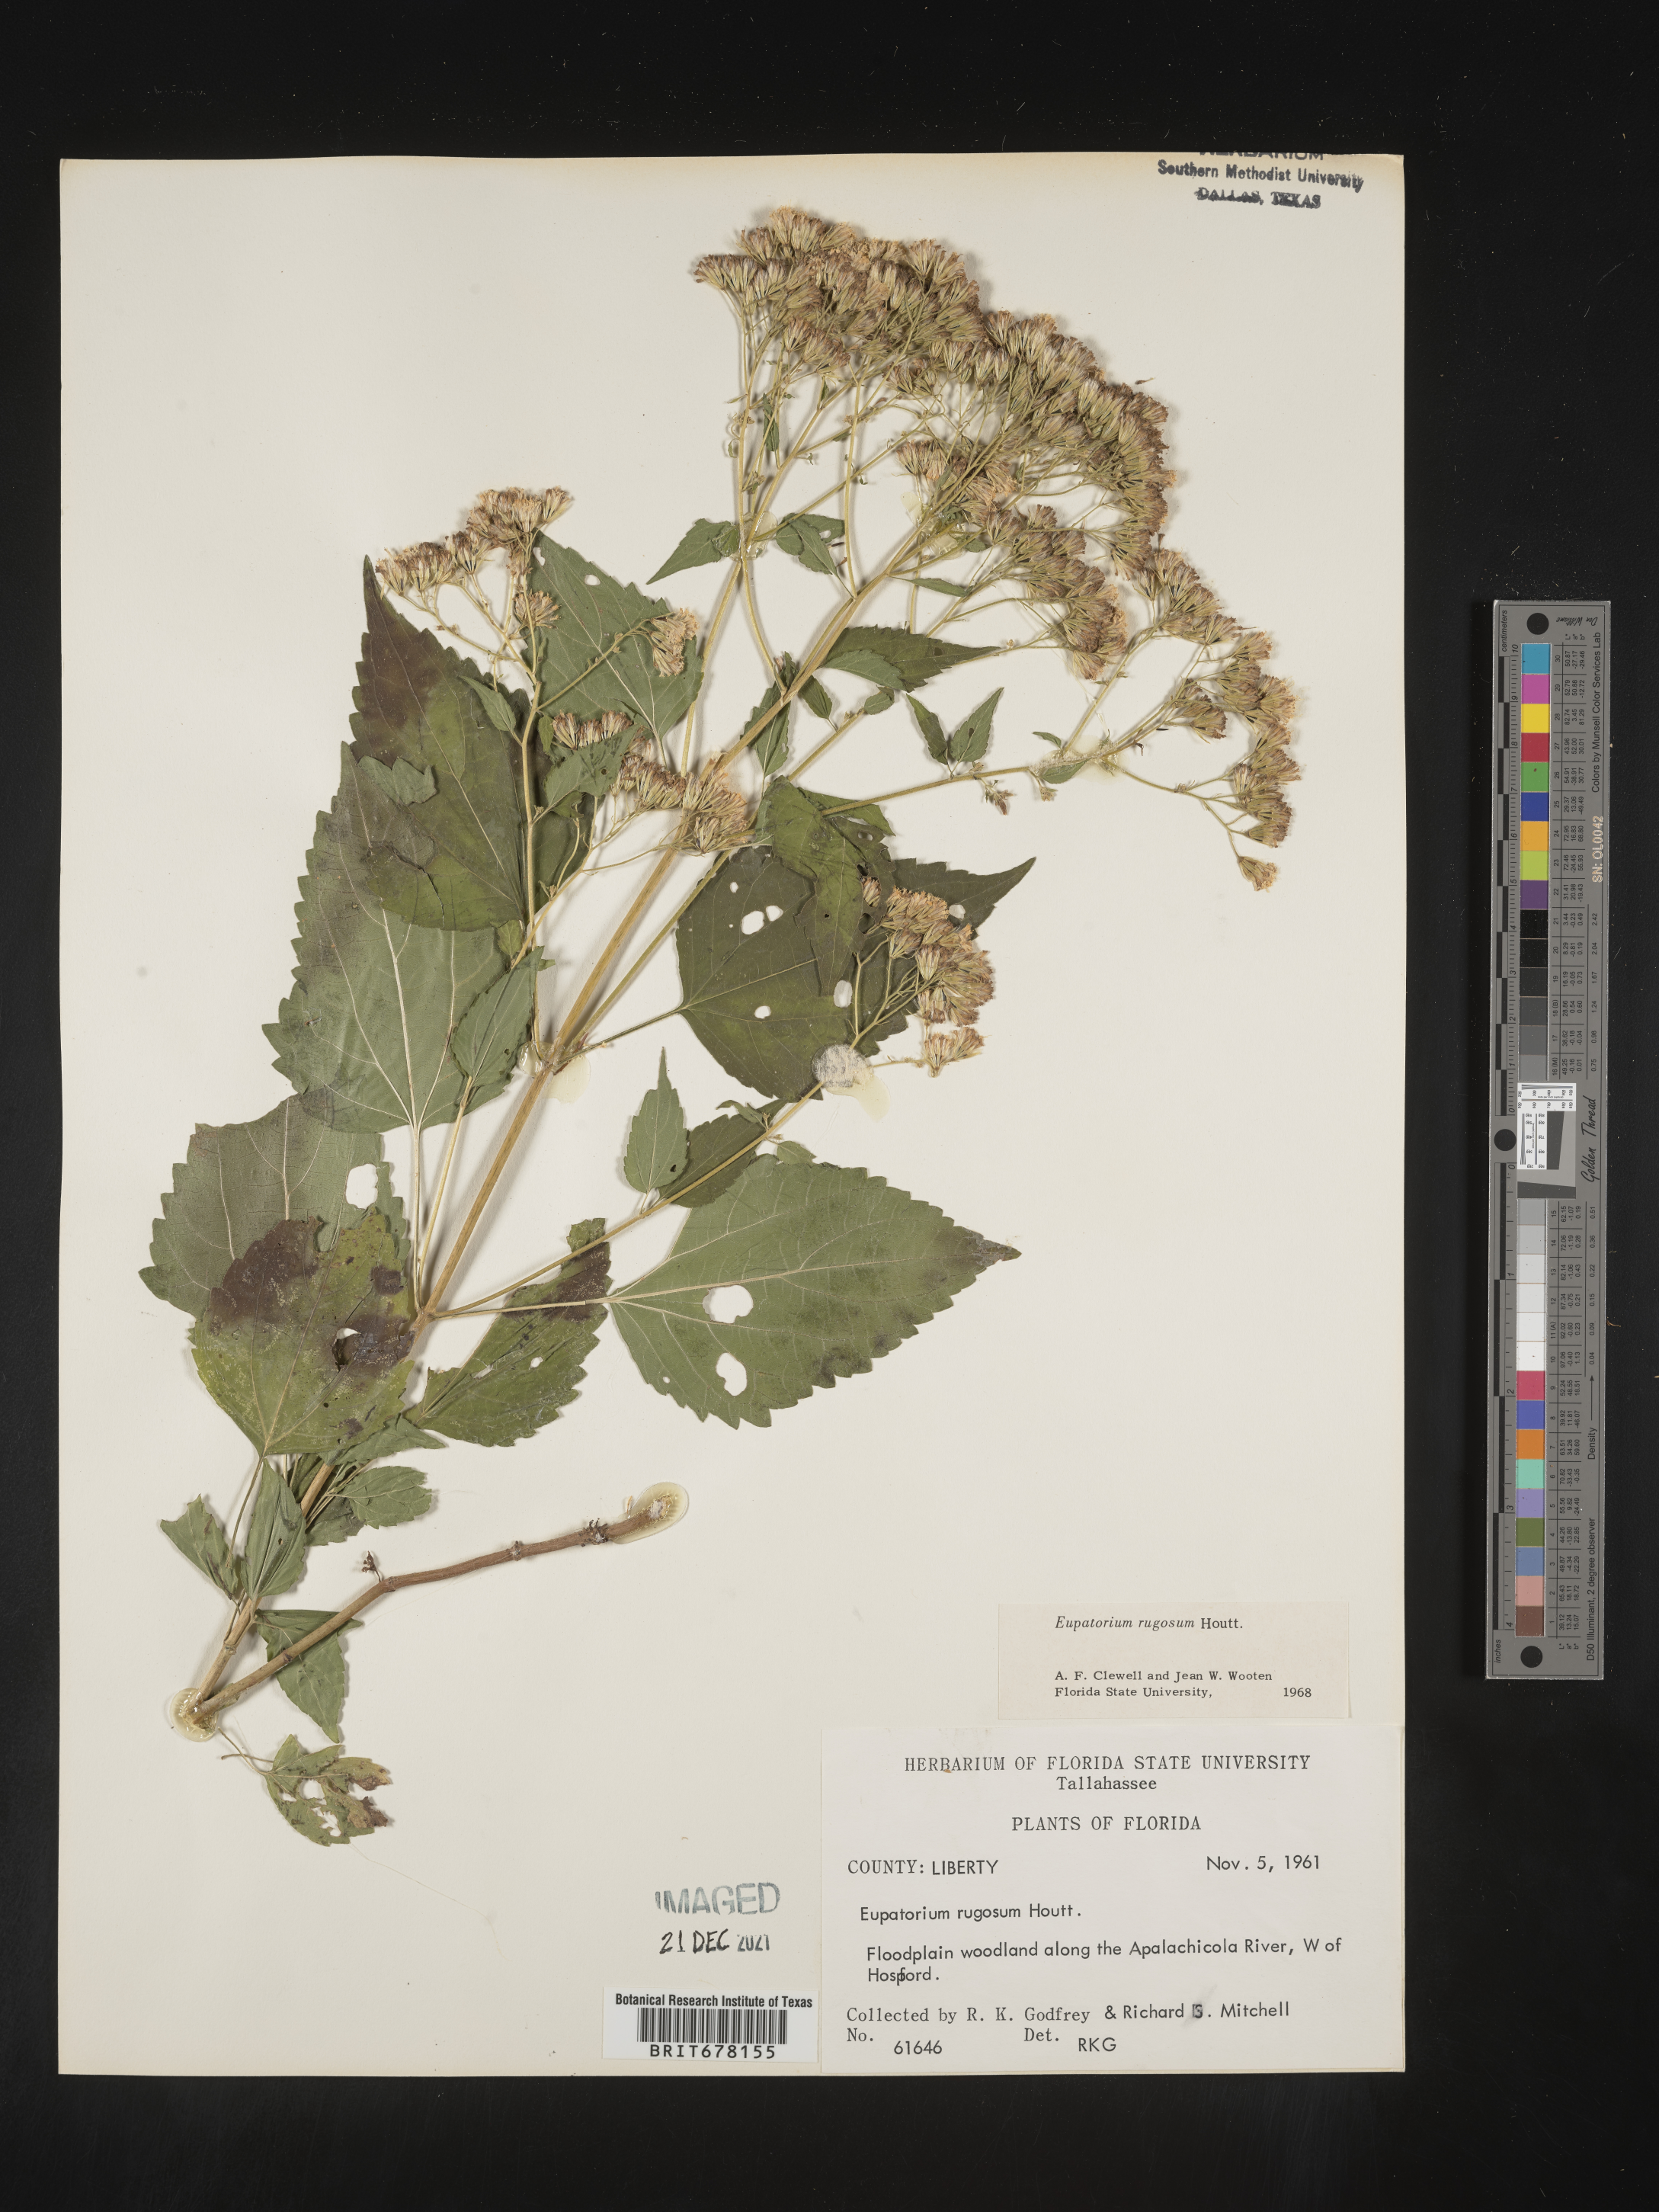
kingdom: Plantae
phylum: Tracheophyta
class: Magnoliopsida
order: Asterales
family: Asteraceae
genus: Eupatorium
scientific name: Eupatorium
